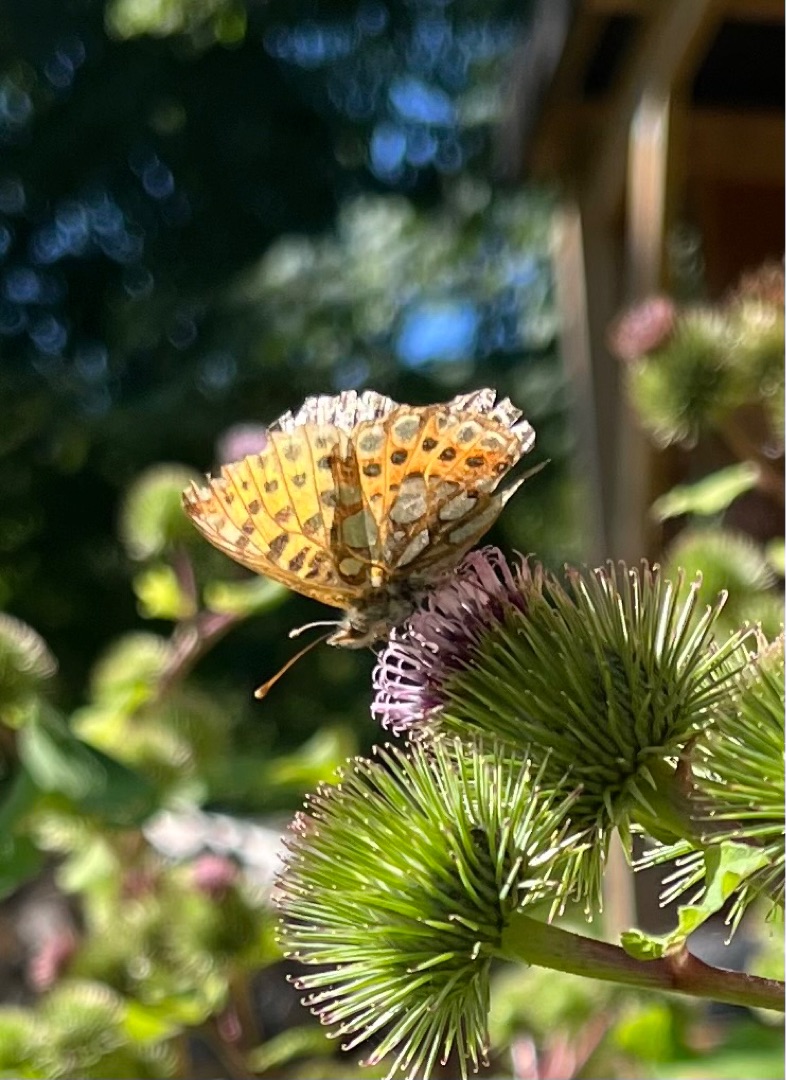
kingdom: Animalia
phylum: Arthropoda
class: Insecta
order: Lepidoptera
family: Nymphalidae
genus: Issoria
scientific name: Issoria lathonia
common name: Storplettet perlemorsommerfugl
